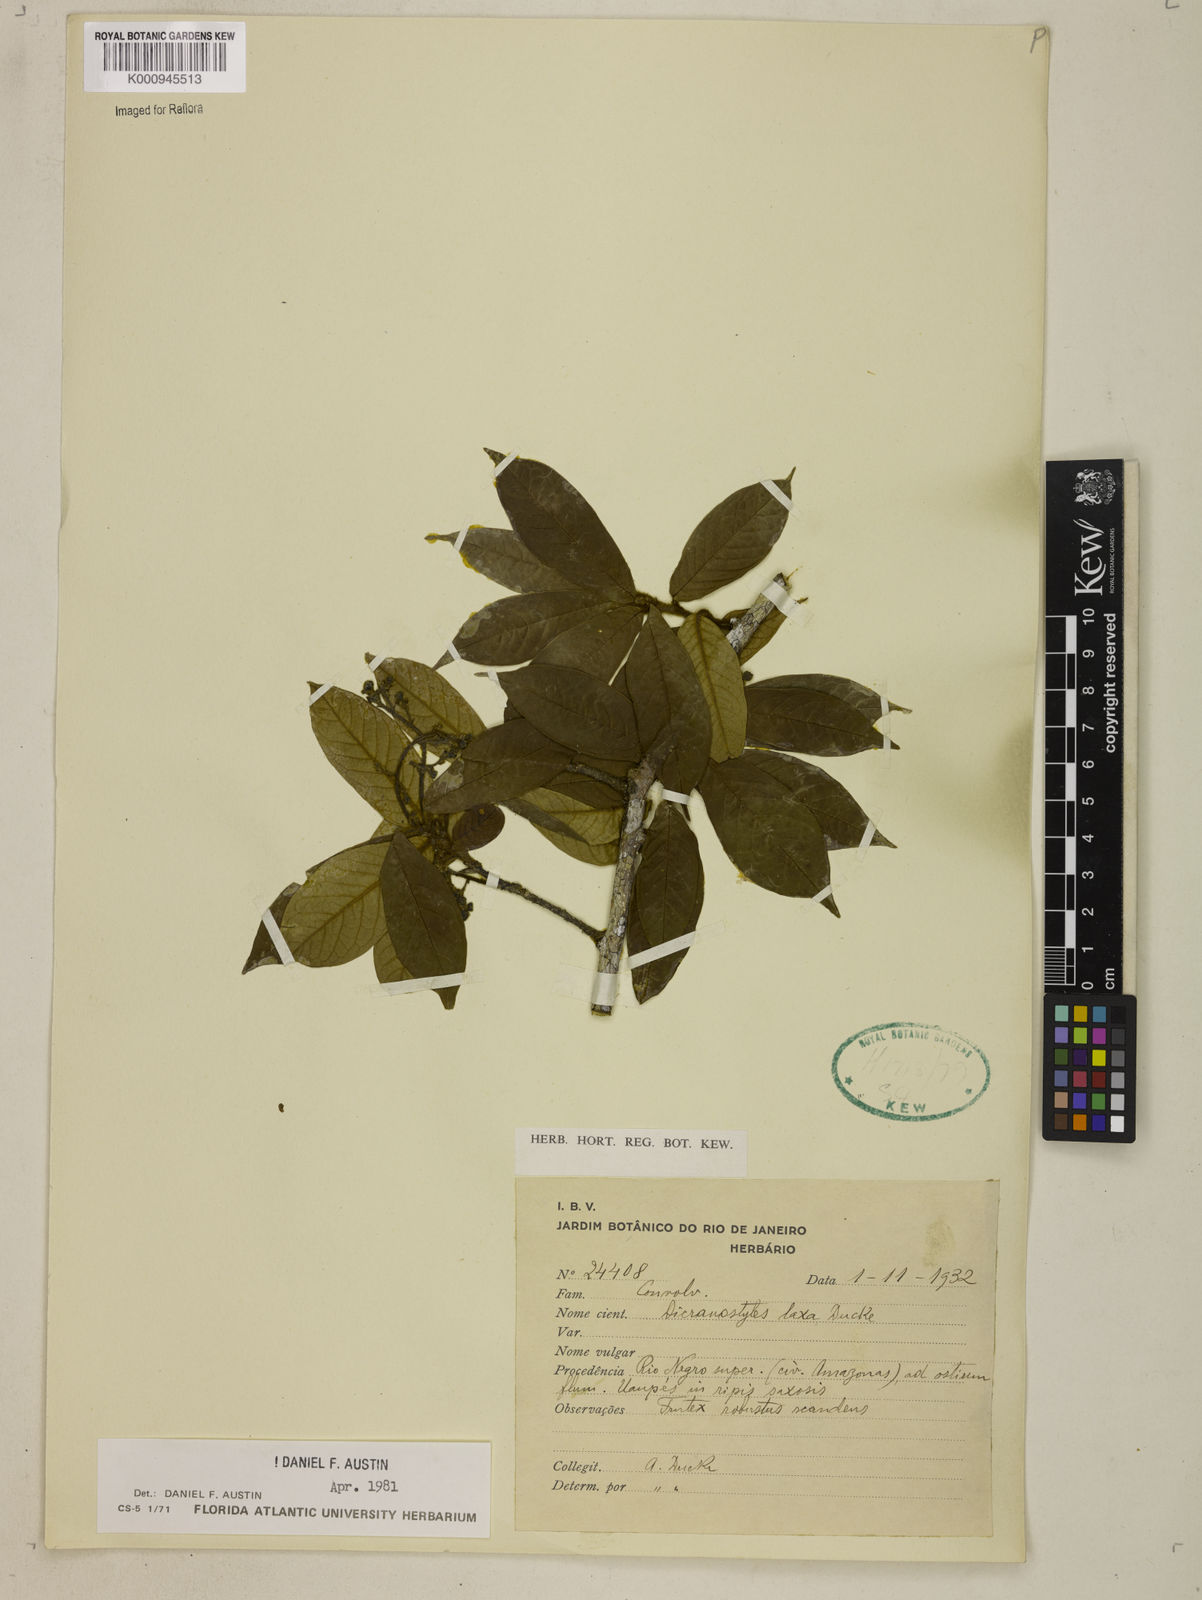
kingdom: Plantae
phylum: Tracheophyta
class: Magnoliopsida
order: Solanales
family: Convolvulaceae
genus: Dicranostyles
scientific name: Dicranostyles laxa
